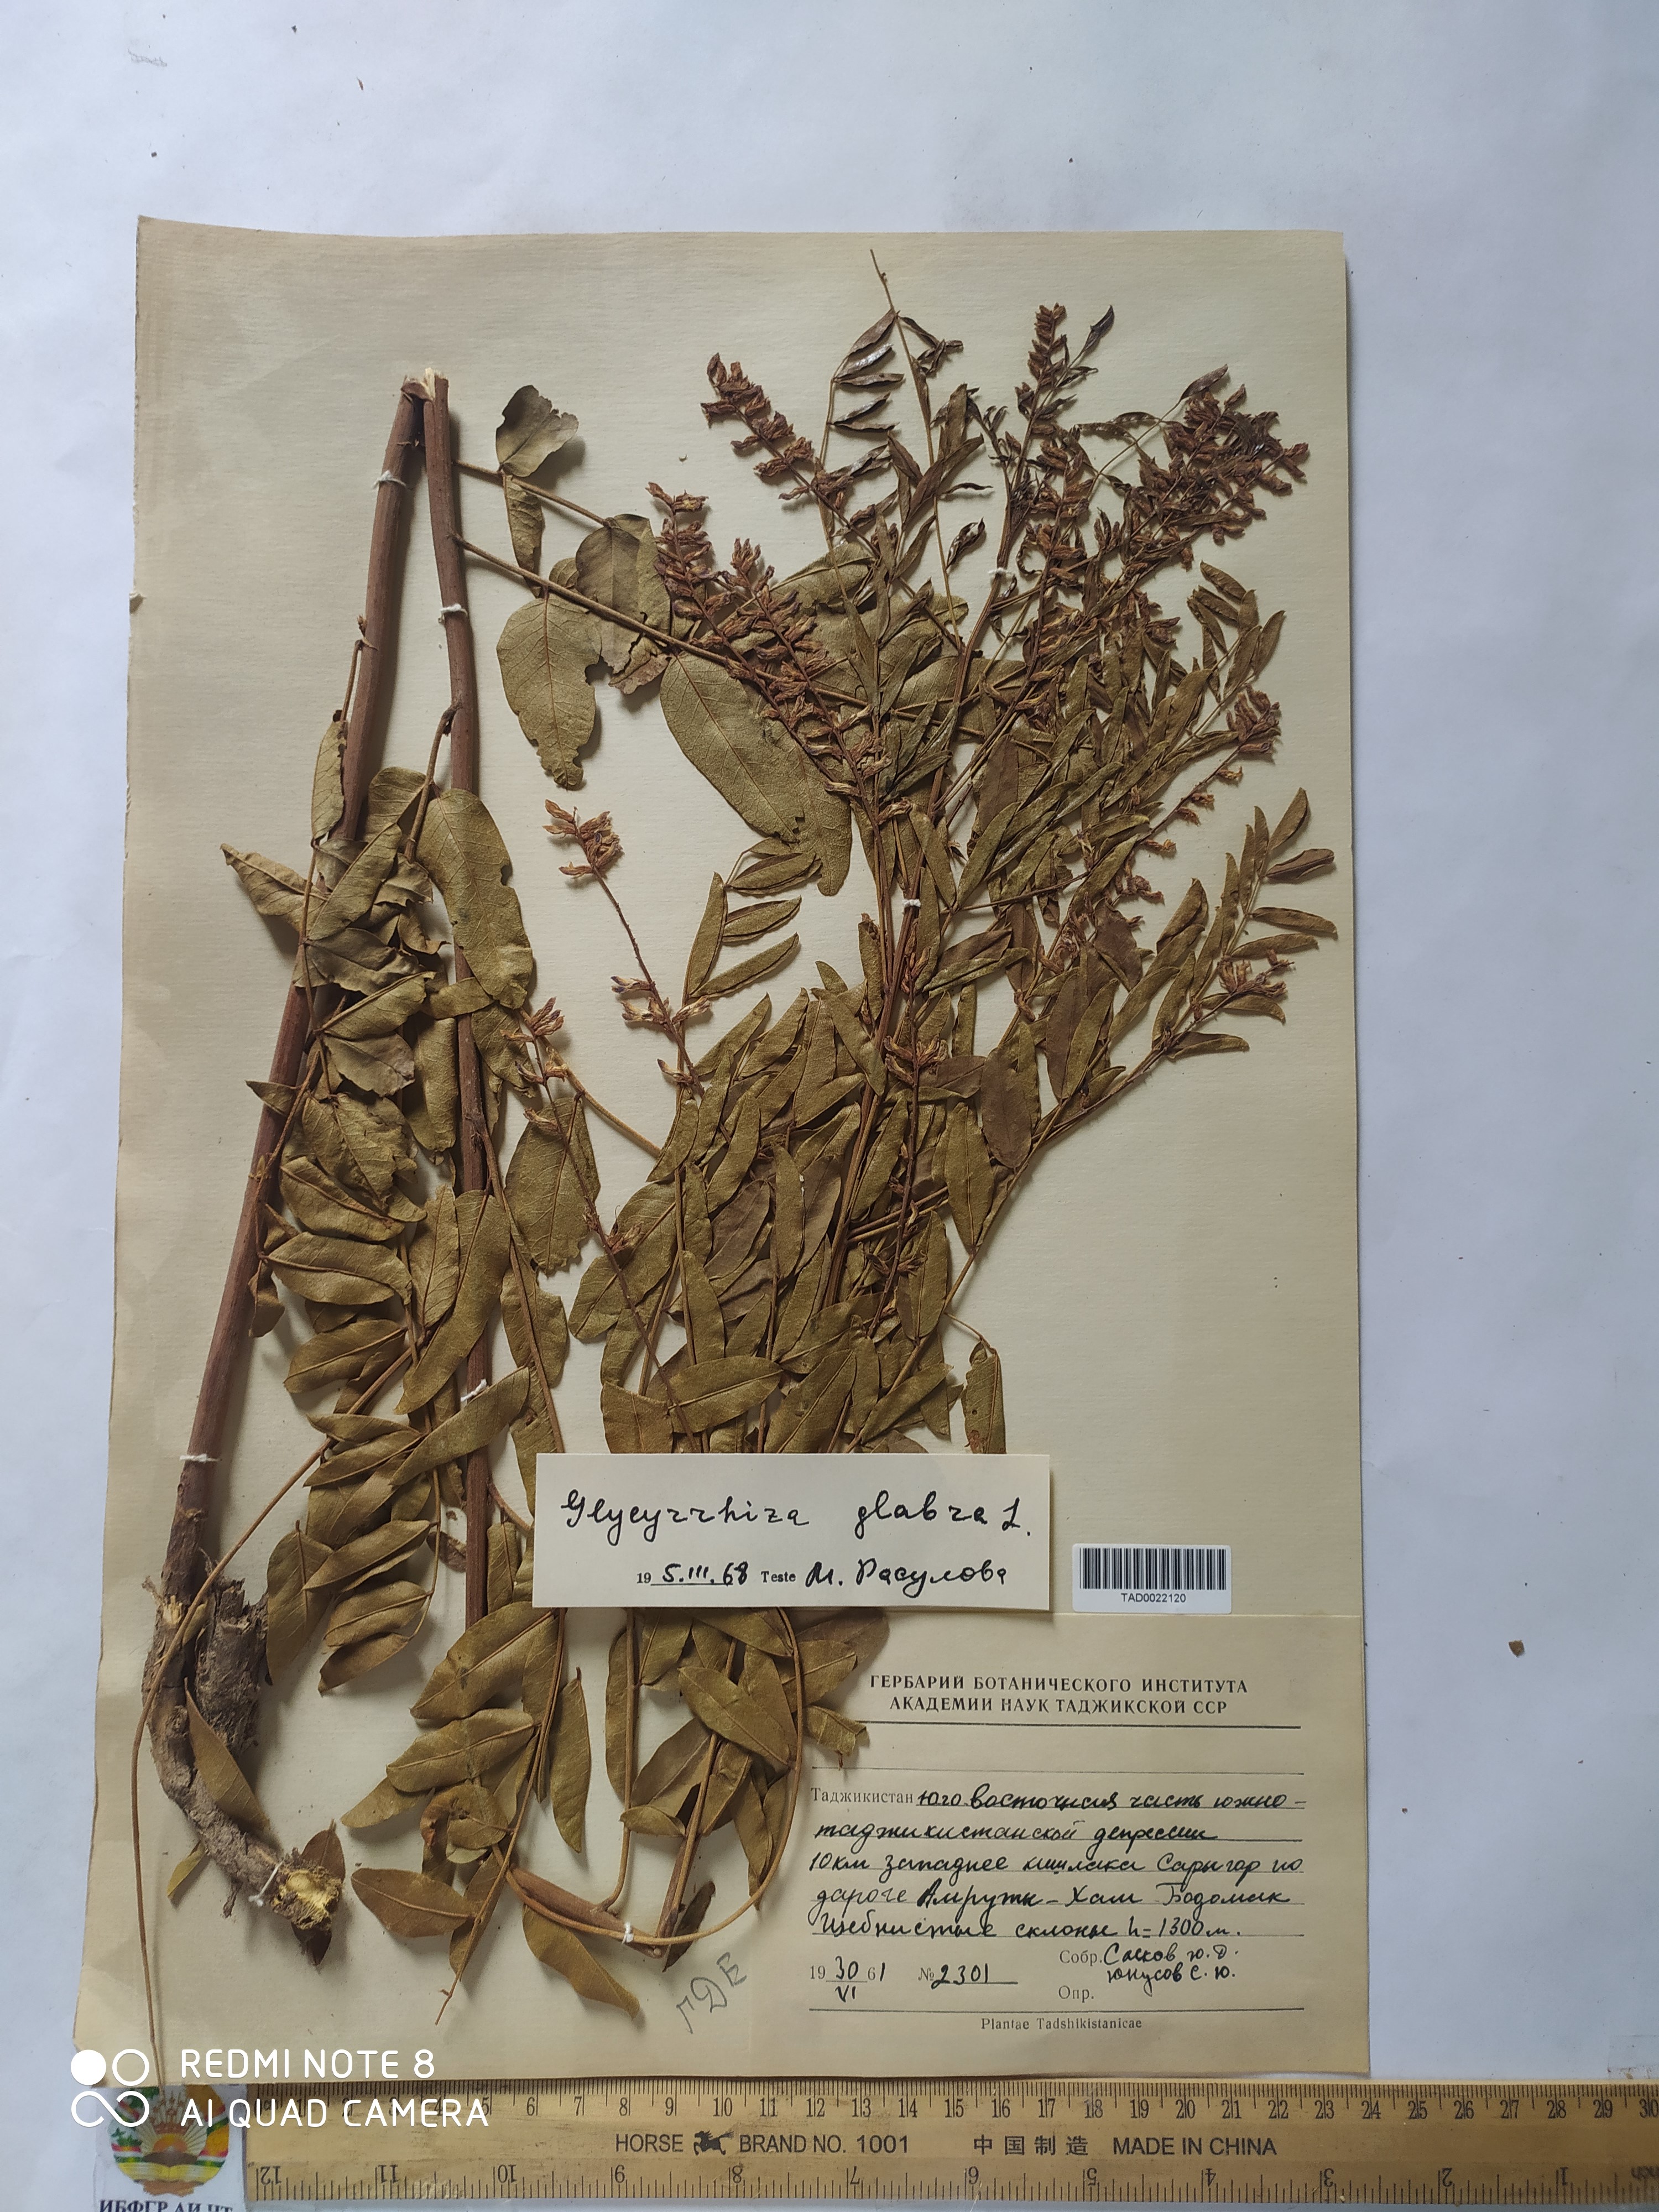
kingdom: Plantae
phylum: Tracheophyta
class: Magnoliopsida
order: Fabales
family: Fabaceae
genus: Glycyrrhiza
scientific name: Glycyrrhiza glabra
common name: Liquorice
